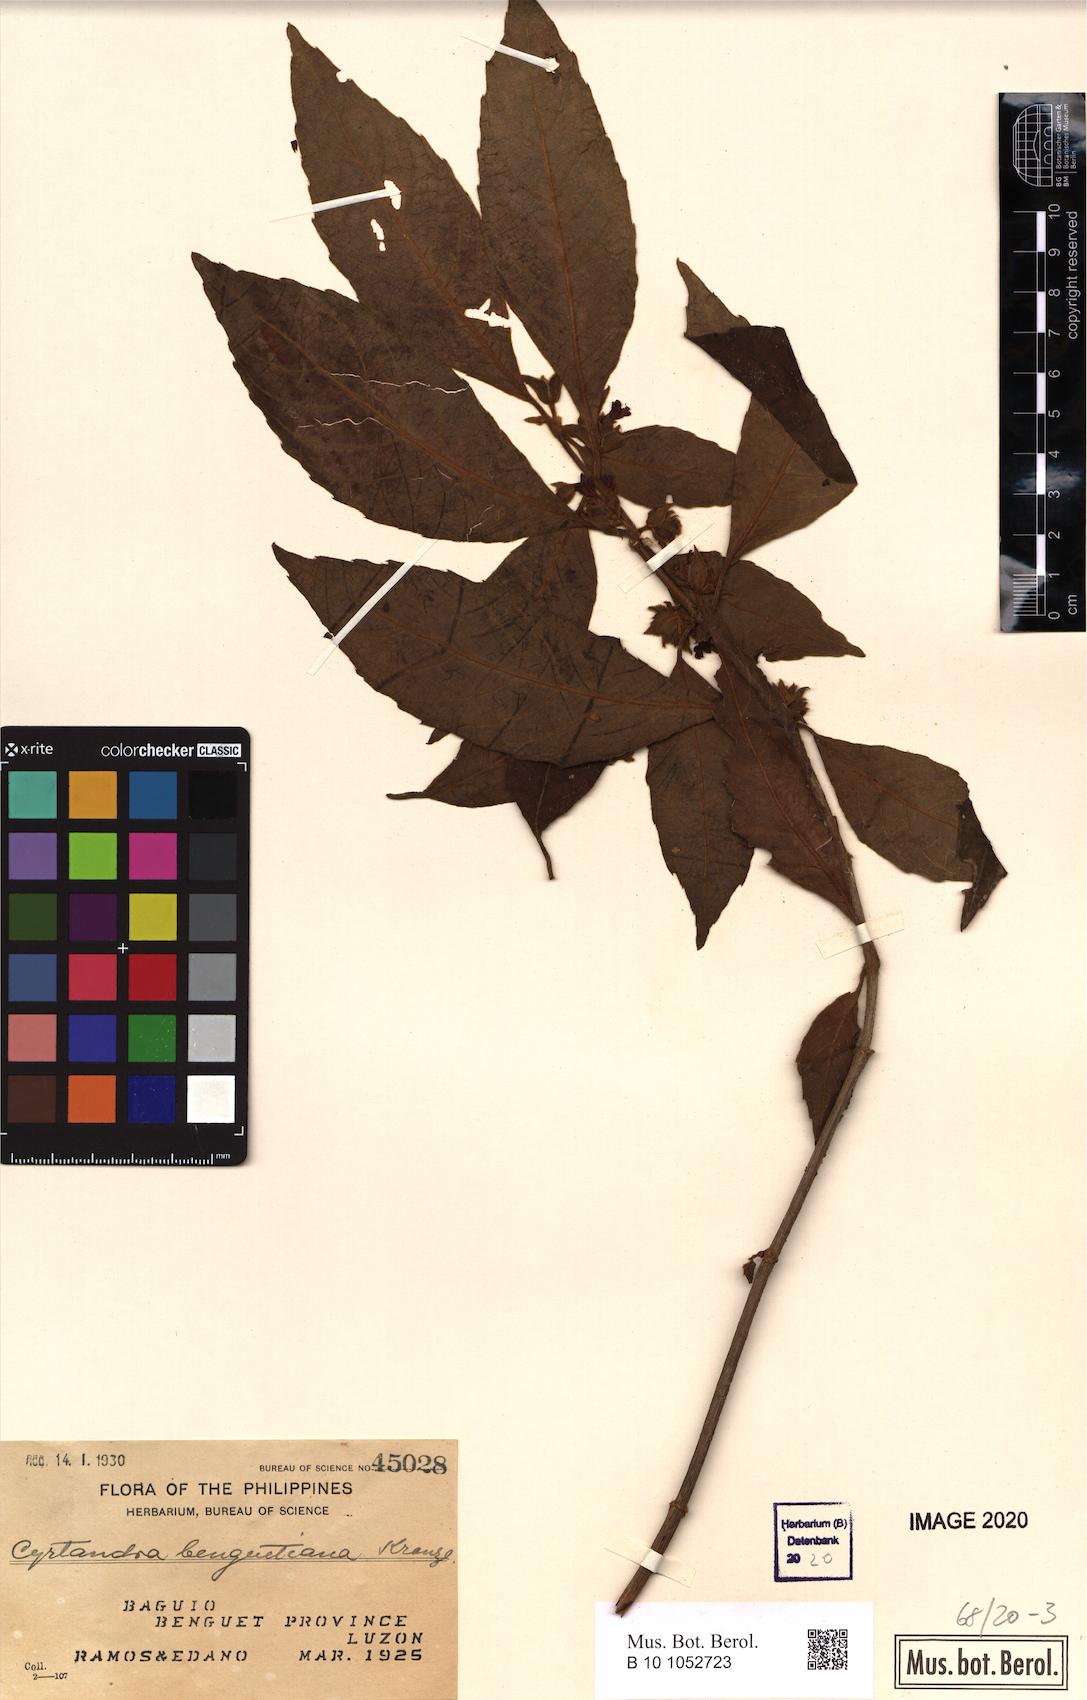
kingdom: Plantae
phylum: Tracheophyta
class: Magnoliopsida
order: Lamiales
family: Gesneriaceae
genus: Cyrtandra
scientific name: Cyrtandra benguetiana
